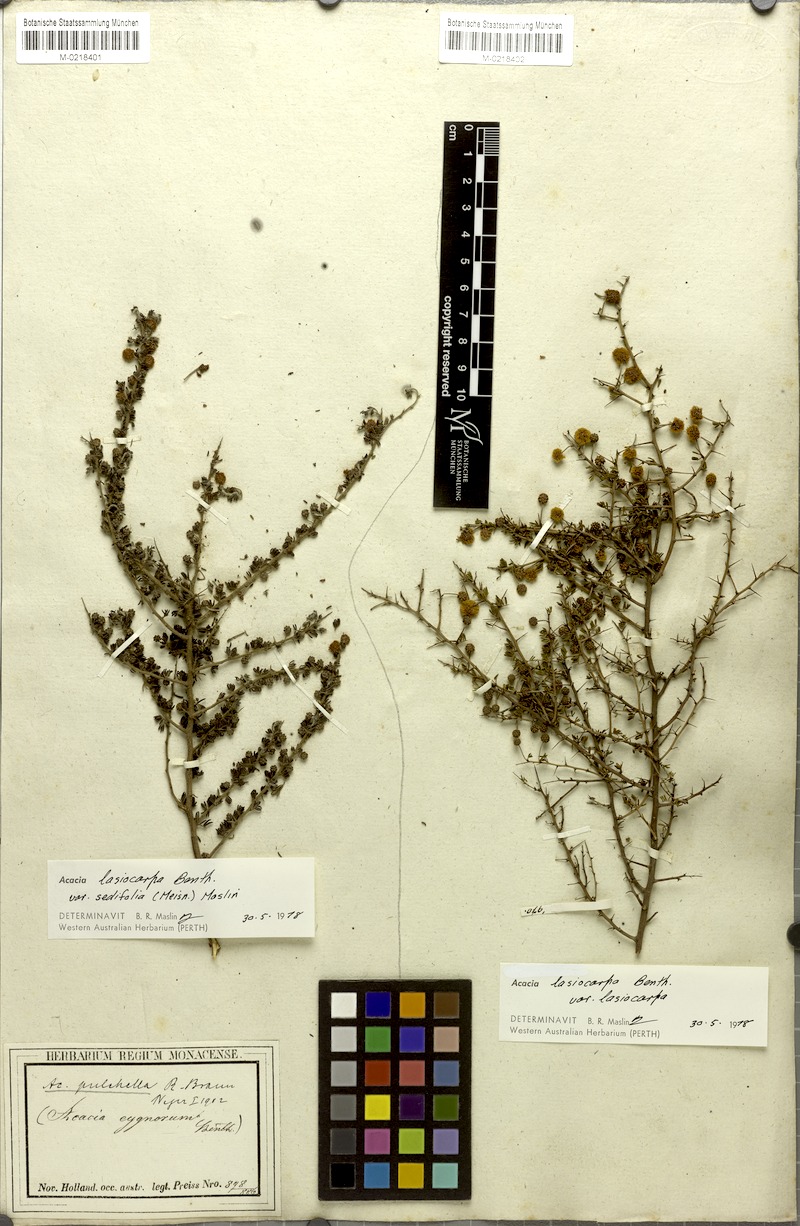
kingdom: Plantae
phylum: Tracheophyta
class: Magnoliopsida
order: Fabales
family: Fabaceae
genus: Acacia
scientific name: Acacia lasiocarpa
